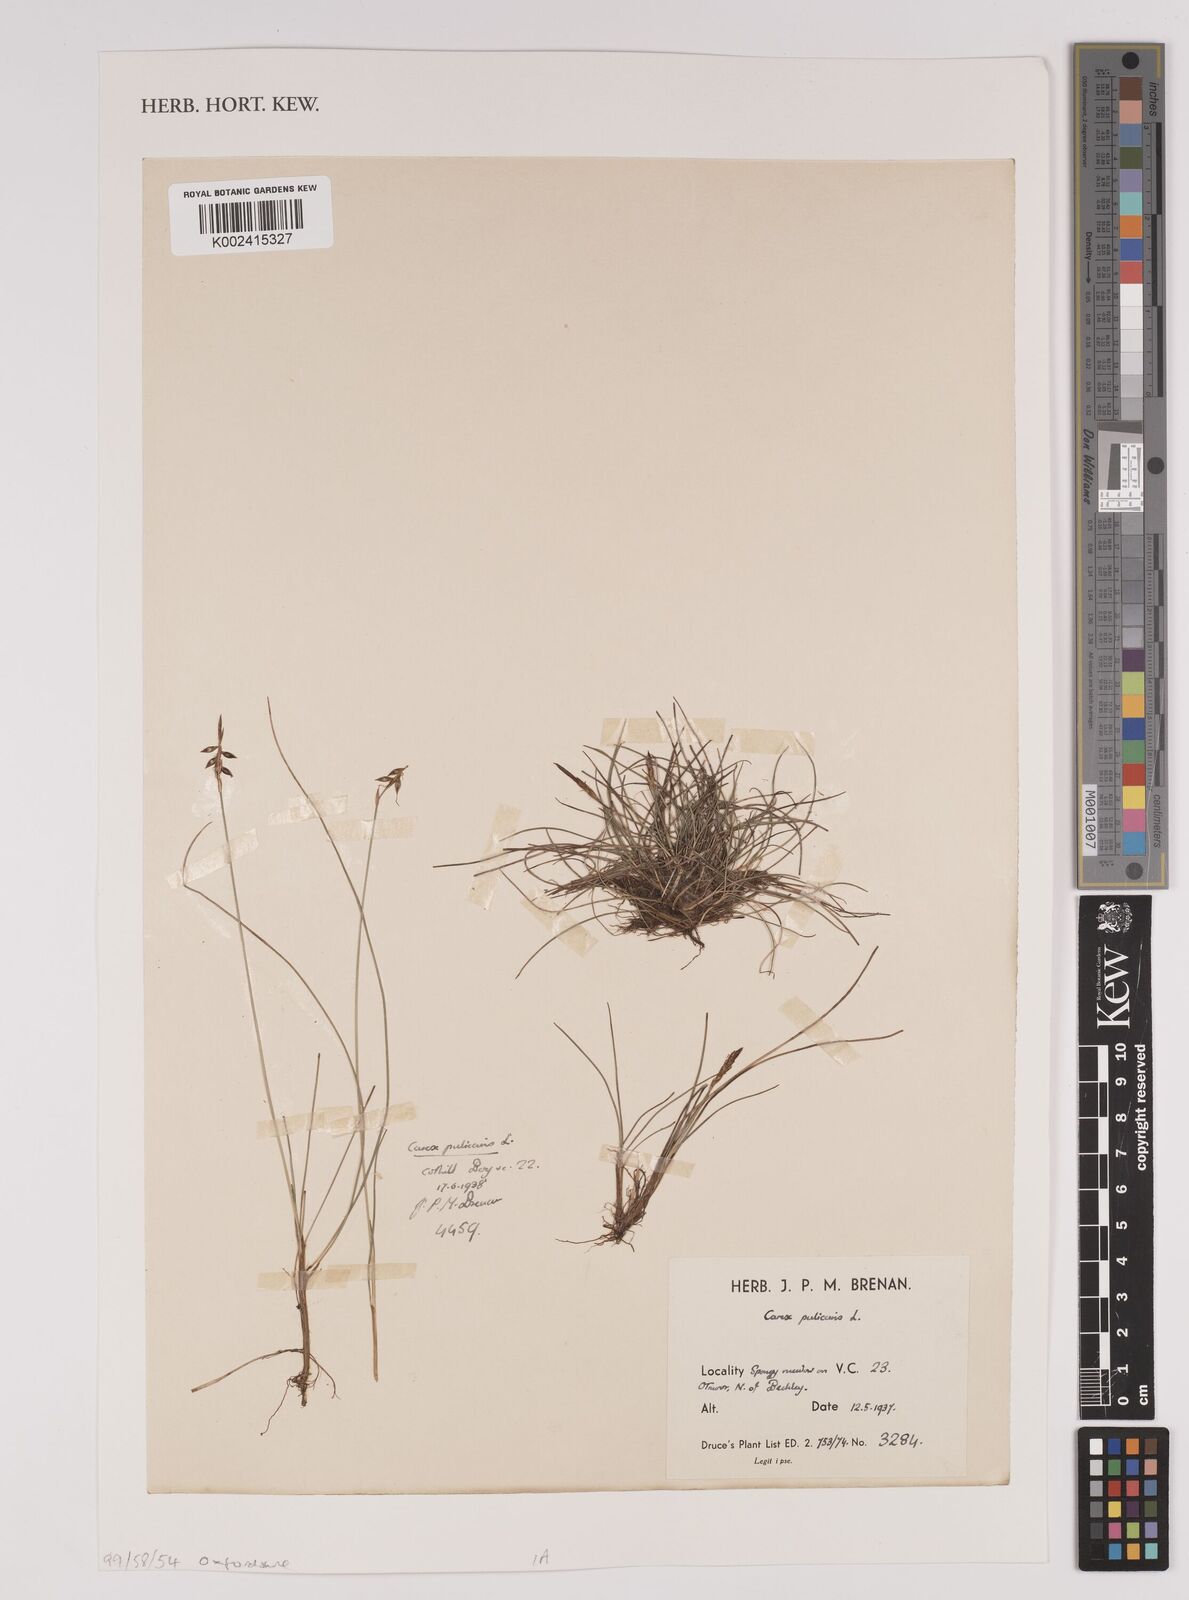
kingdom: Plantae
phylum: Tracheophyta
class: Liliopsida
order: Poales
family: Cyperaceae
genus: Carex
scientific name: Carex pulicaris
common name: Flea sedge
